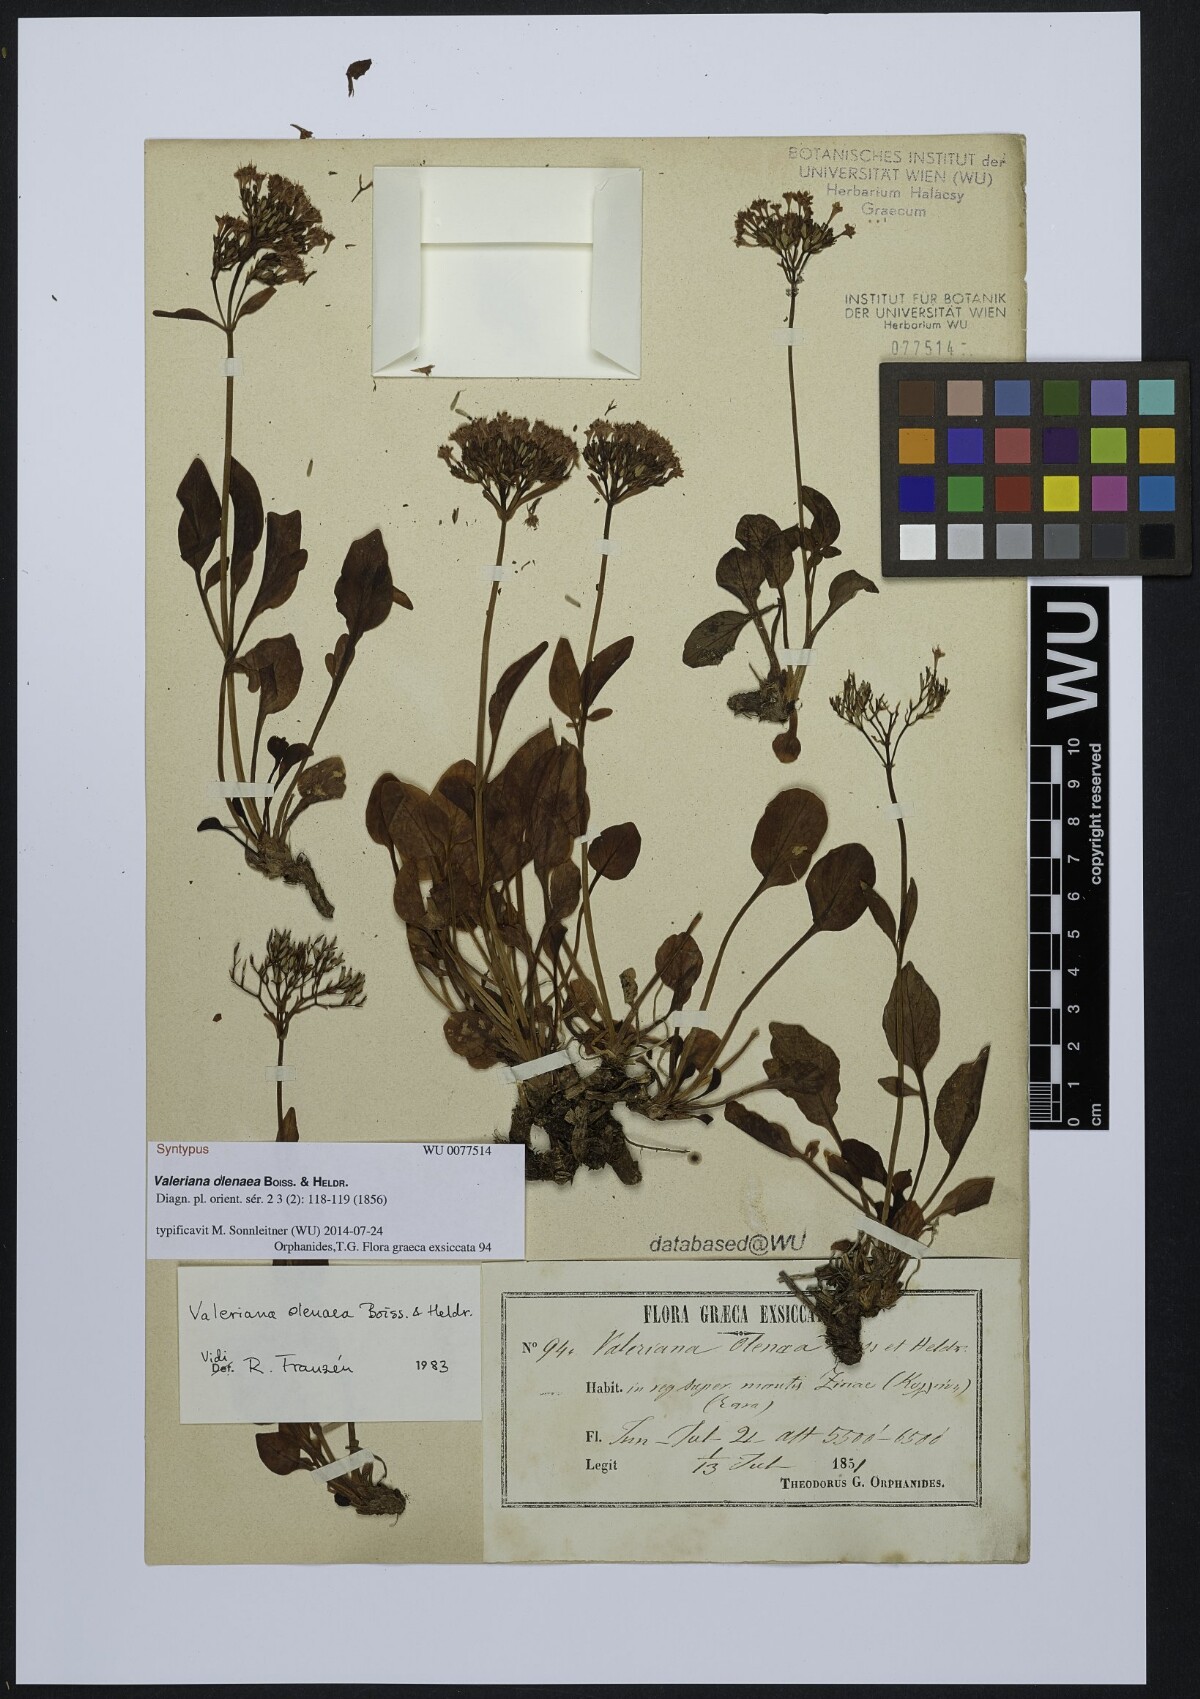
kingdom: Plantae
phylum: Tracheophyta
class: Magnoliopsida
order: Dipsacales
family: Caprifoliaceae
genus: Valeriana
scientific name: Valeriana olenaea
